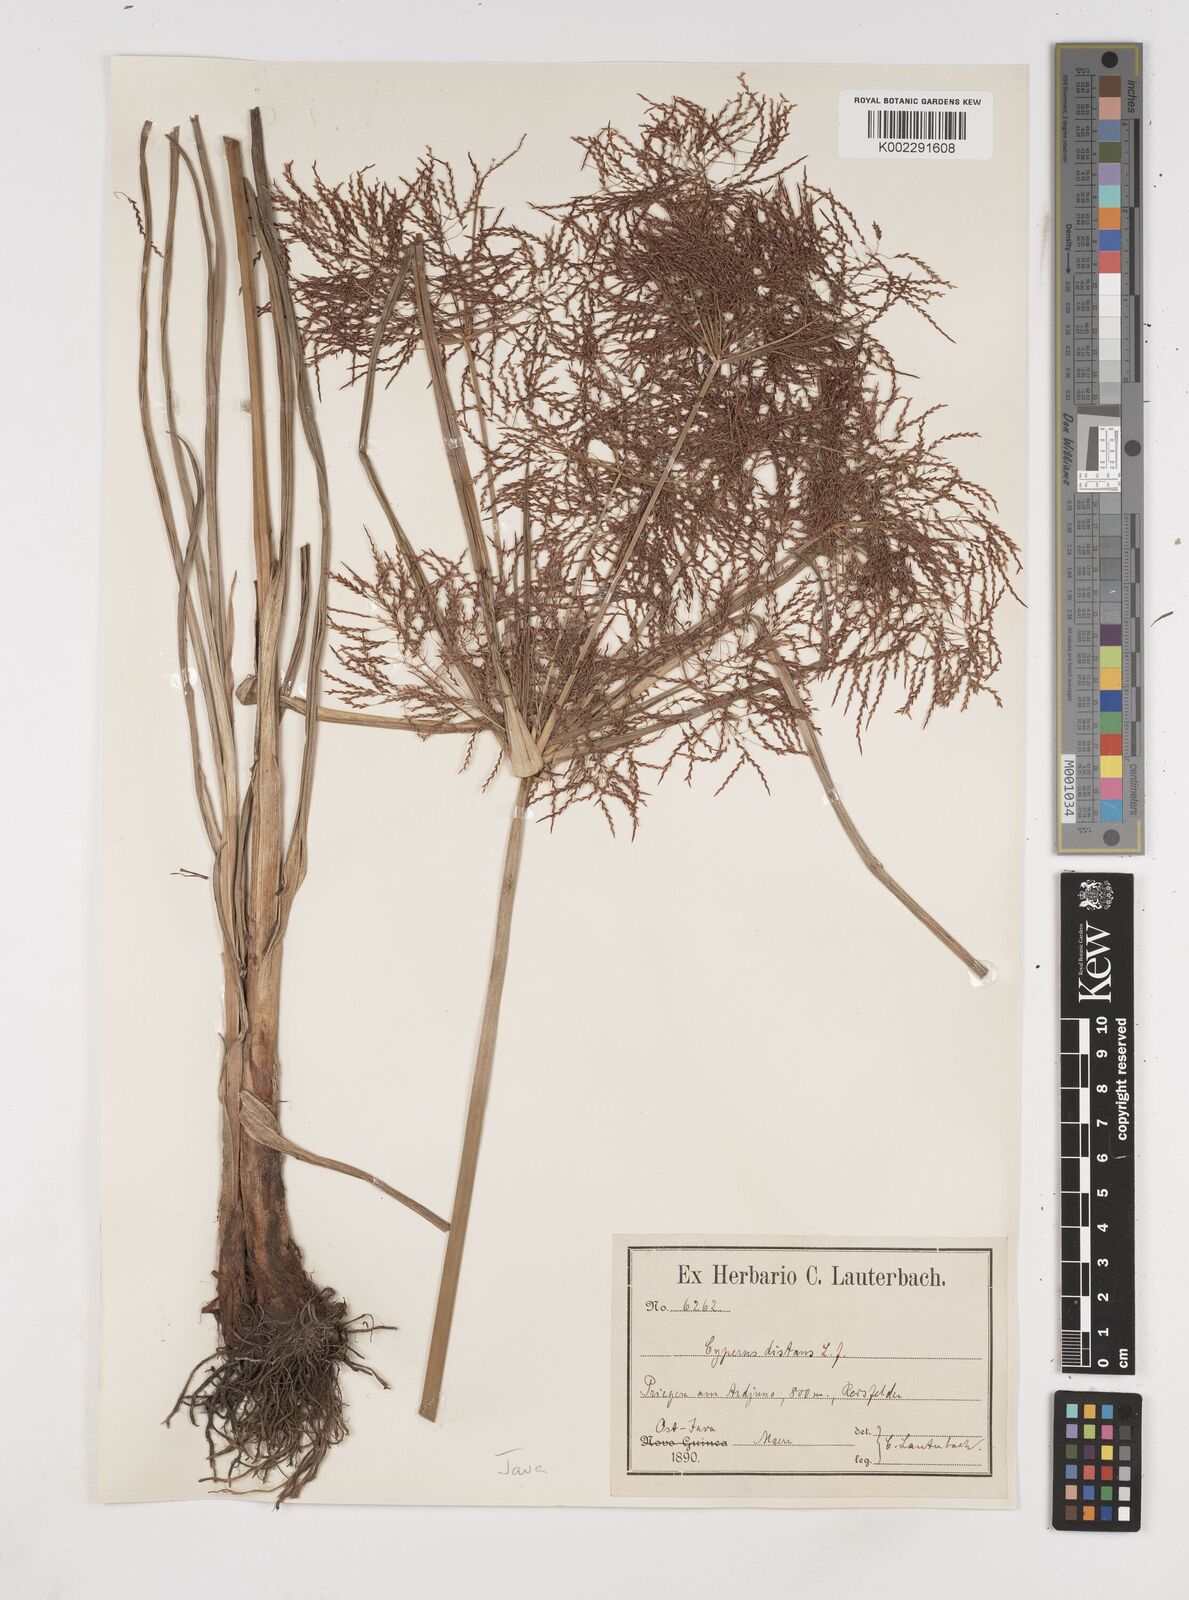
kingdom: Plantae
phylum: Tracheophyta
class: Liliopsida
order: Poales
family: Cyperaceae
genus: Cyperus
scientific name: Cyperus distans
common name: Slender cyperus
